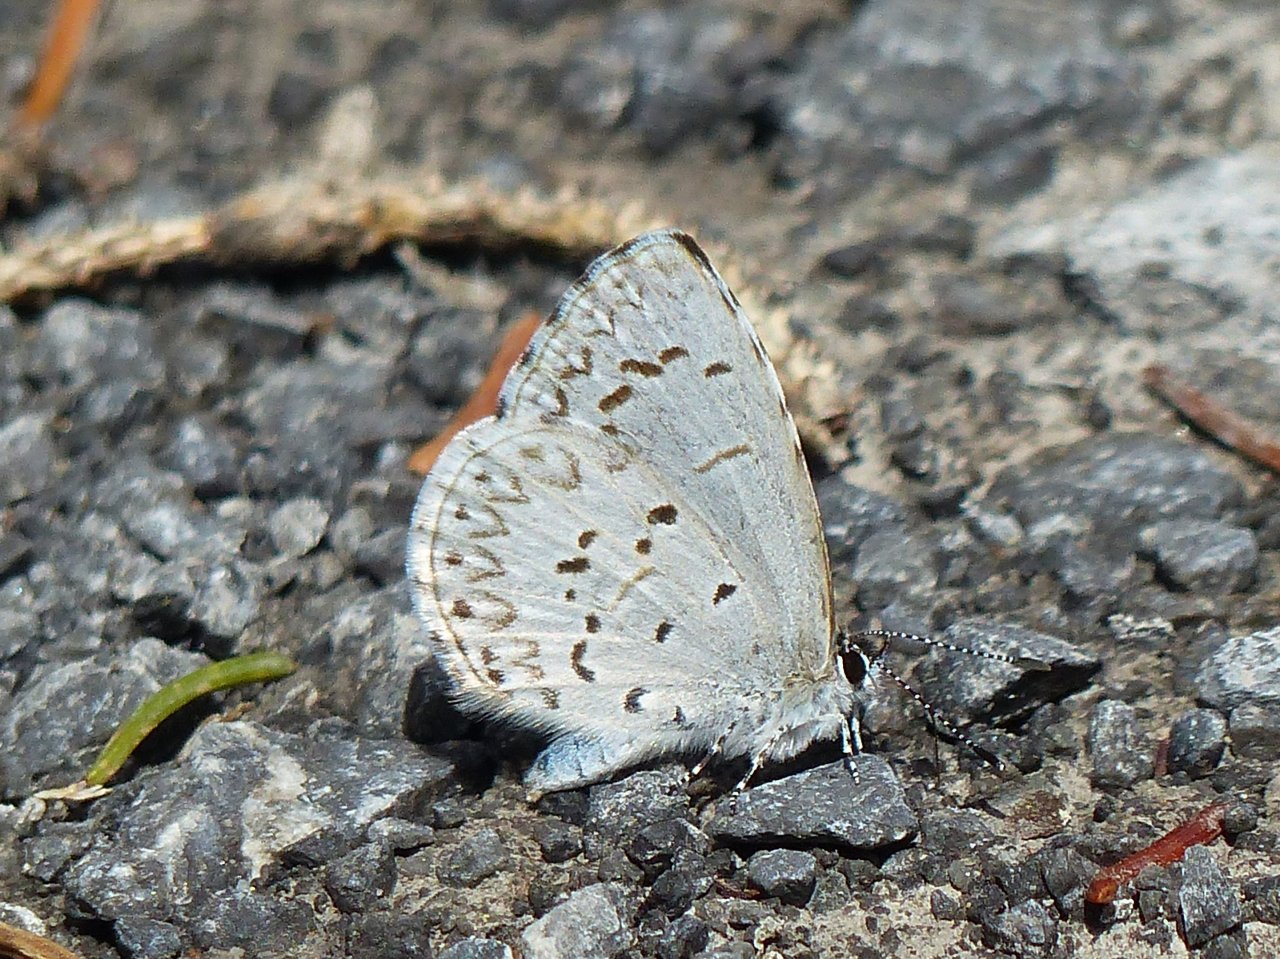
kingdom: Animalia
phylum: Arthropoda
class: Insecta
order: Lepidoptera
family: Lycaenidae
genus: Celastrina
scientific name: Celastrina lucia
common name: Northern Spring Azure
